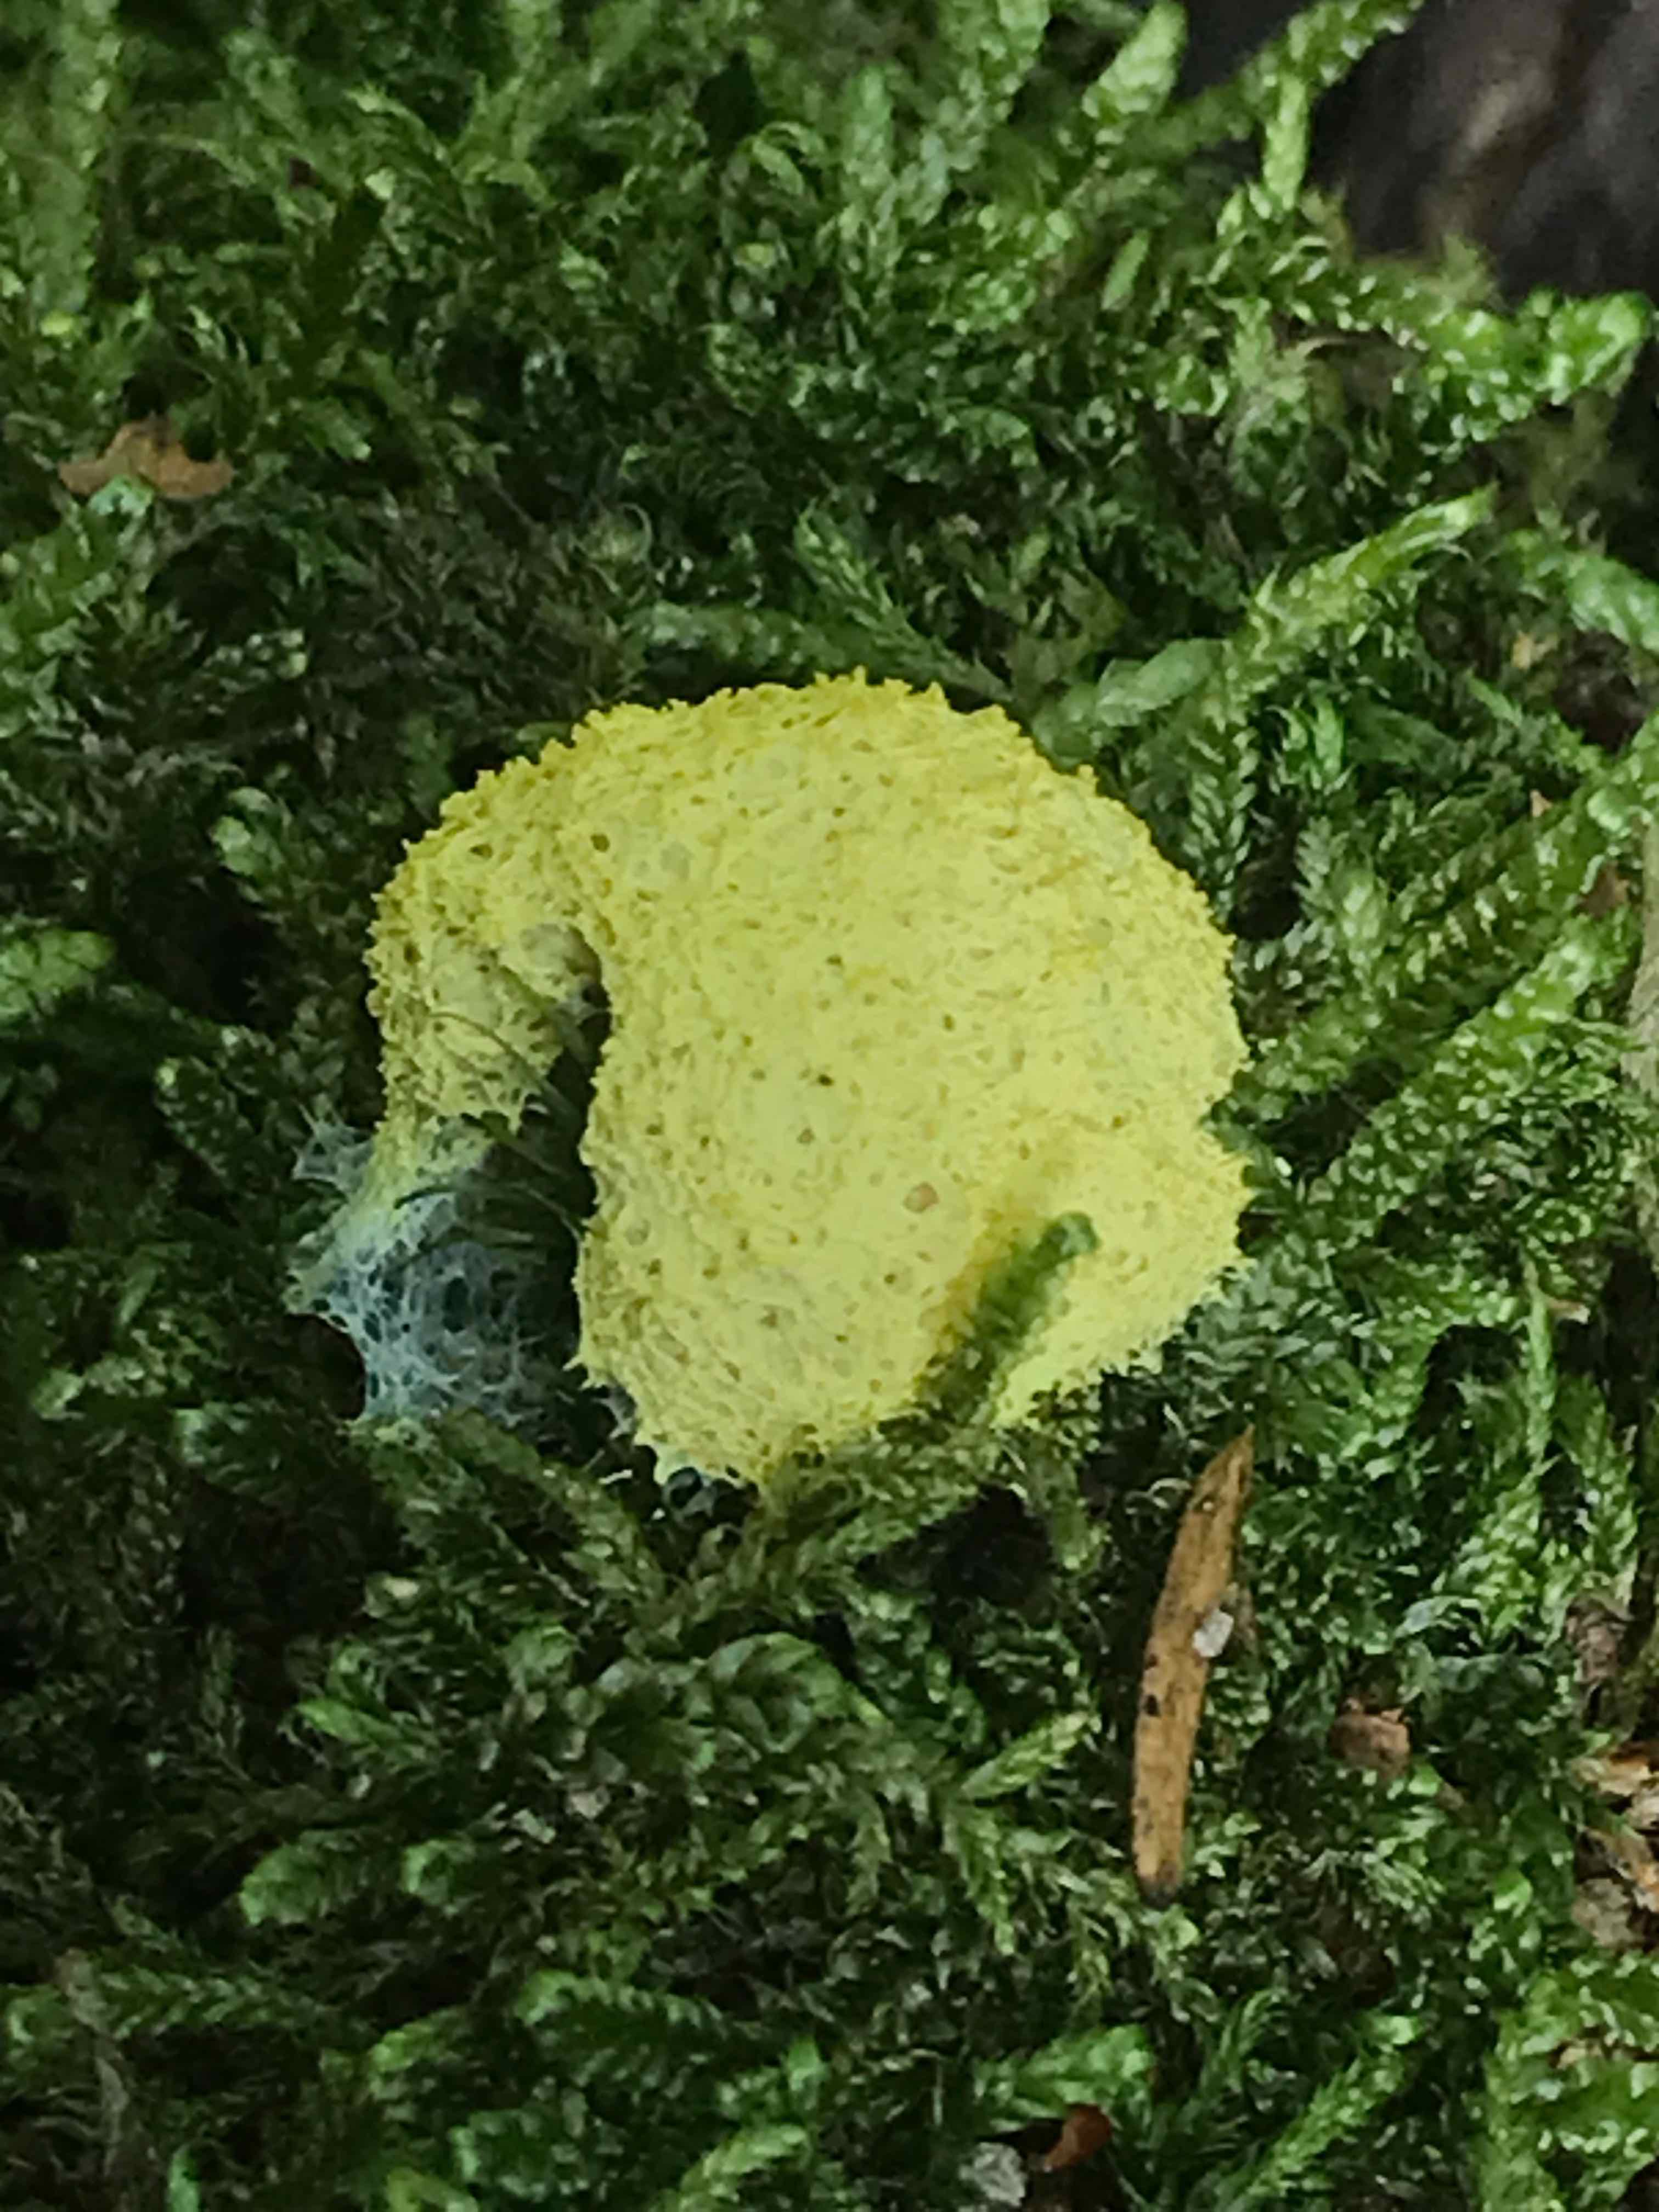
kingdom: Protozoa
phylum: Mycetozoa
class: Myxomycetes
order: Physarales
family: Physaraceae
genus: Fuligo
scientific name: Fuligo septica
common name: gul troldsmør
